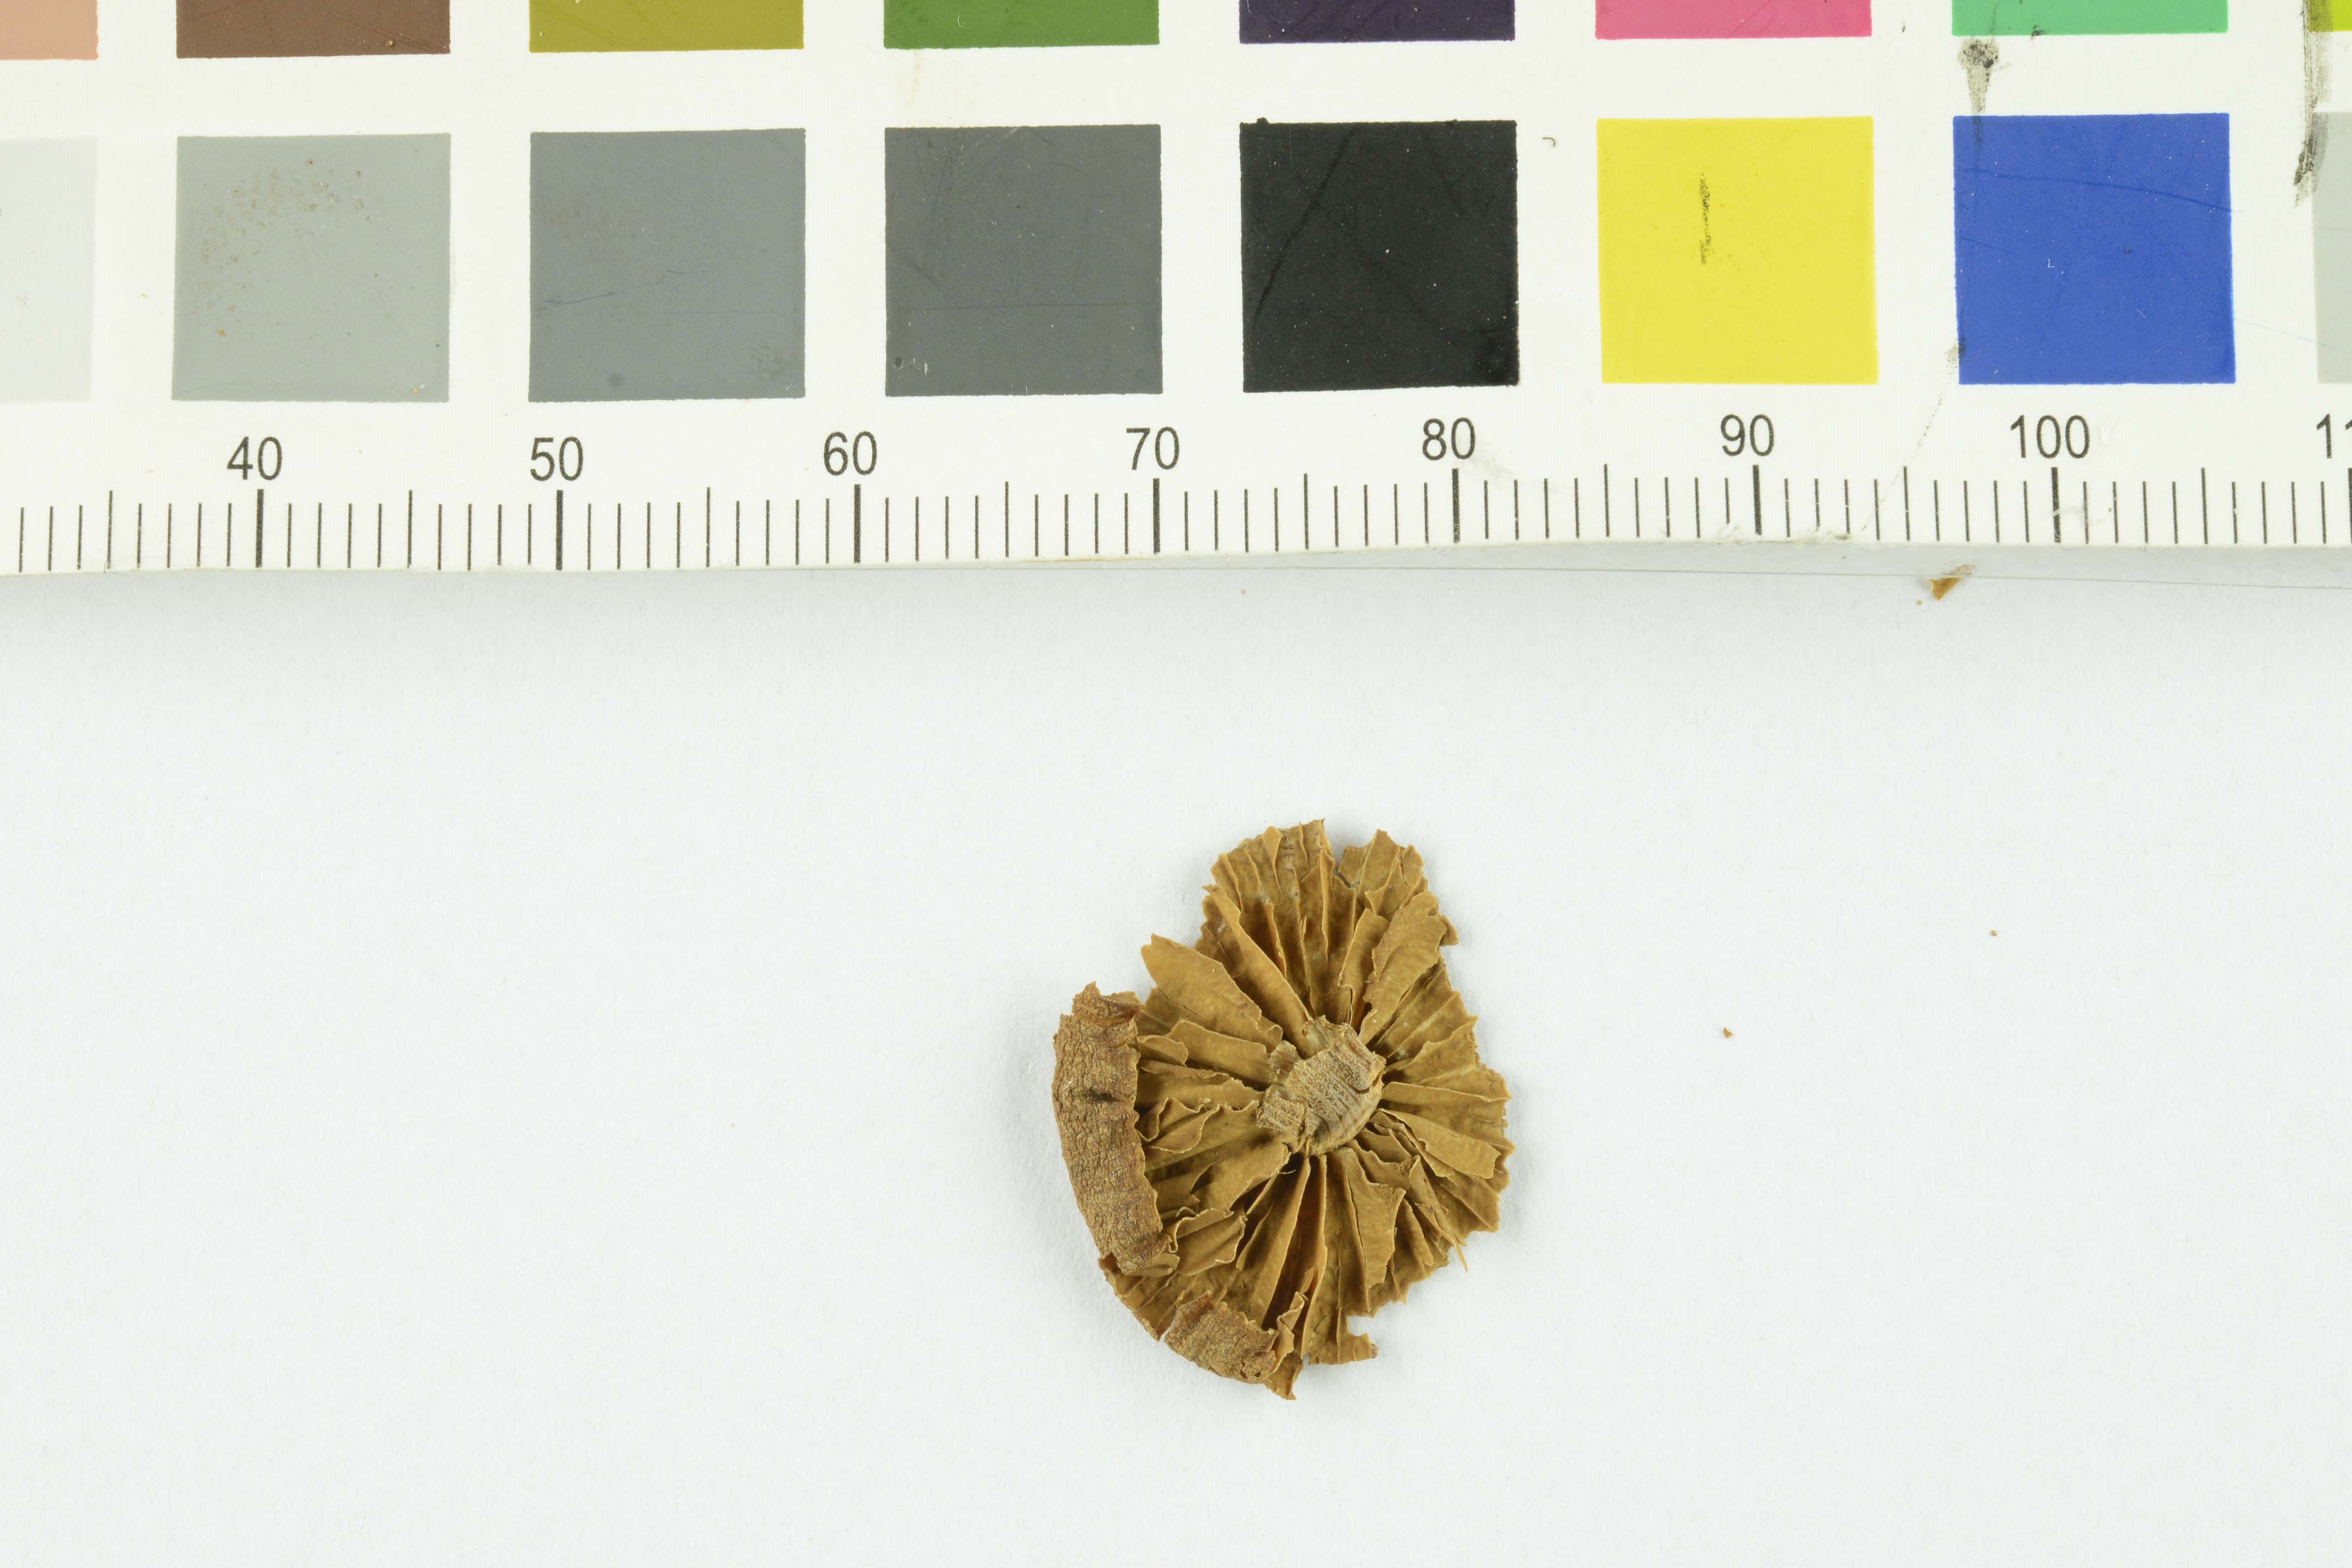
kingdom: Fungi
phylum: Basidiomycota
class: Agaricomycetes
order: Agaricales
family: Bolbitiaceae
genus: Conocybe
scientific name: Conocybe rickeniana
